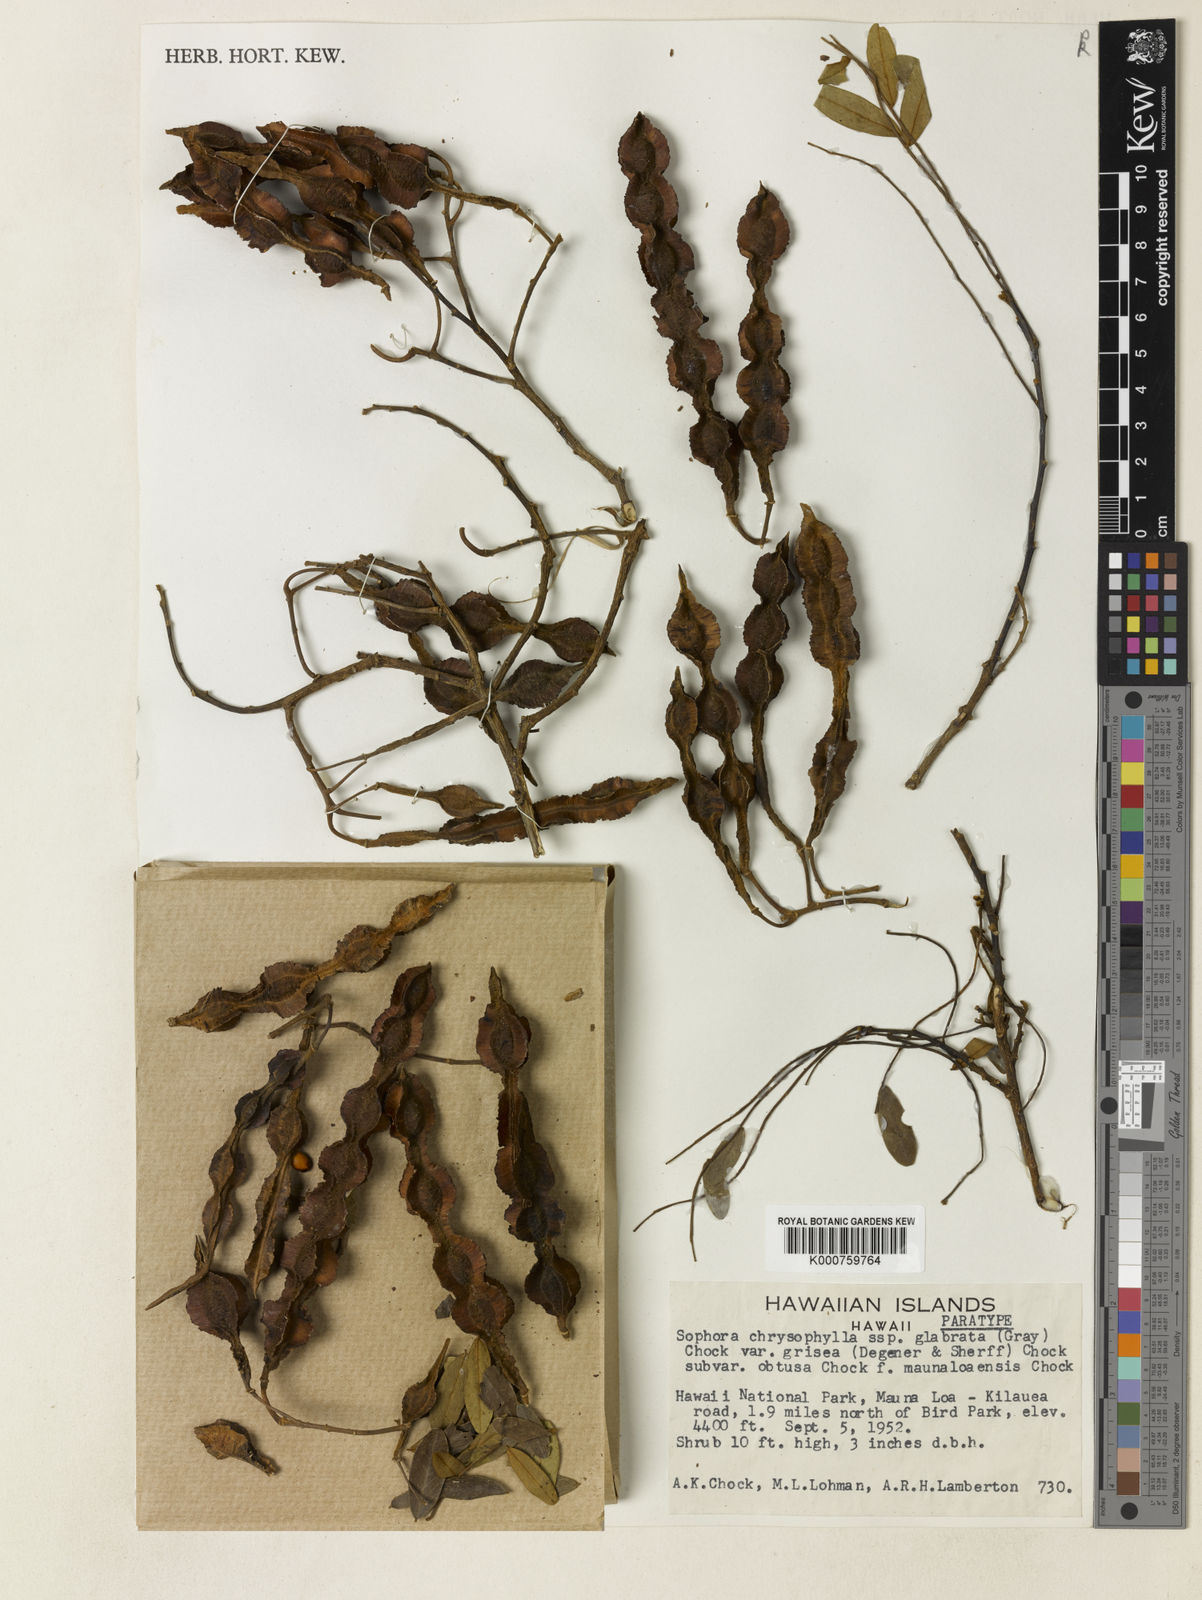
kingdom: Plantae
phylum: Tracheophyta
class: Magnoliopsida
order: Fabales
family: Fabaceae
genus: Sophora
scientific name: Sophora chrysophylla
